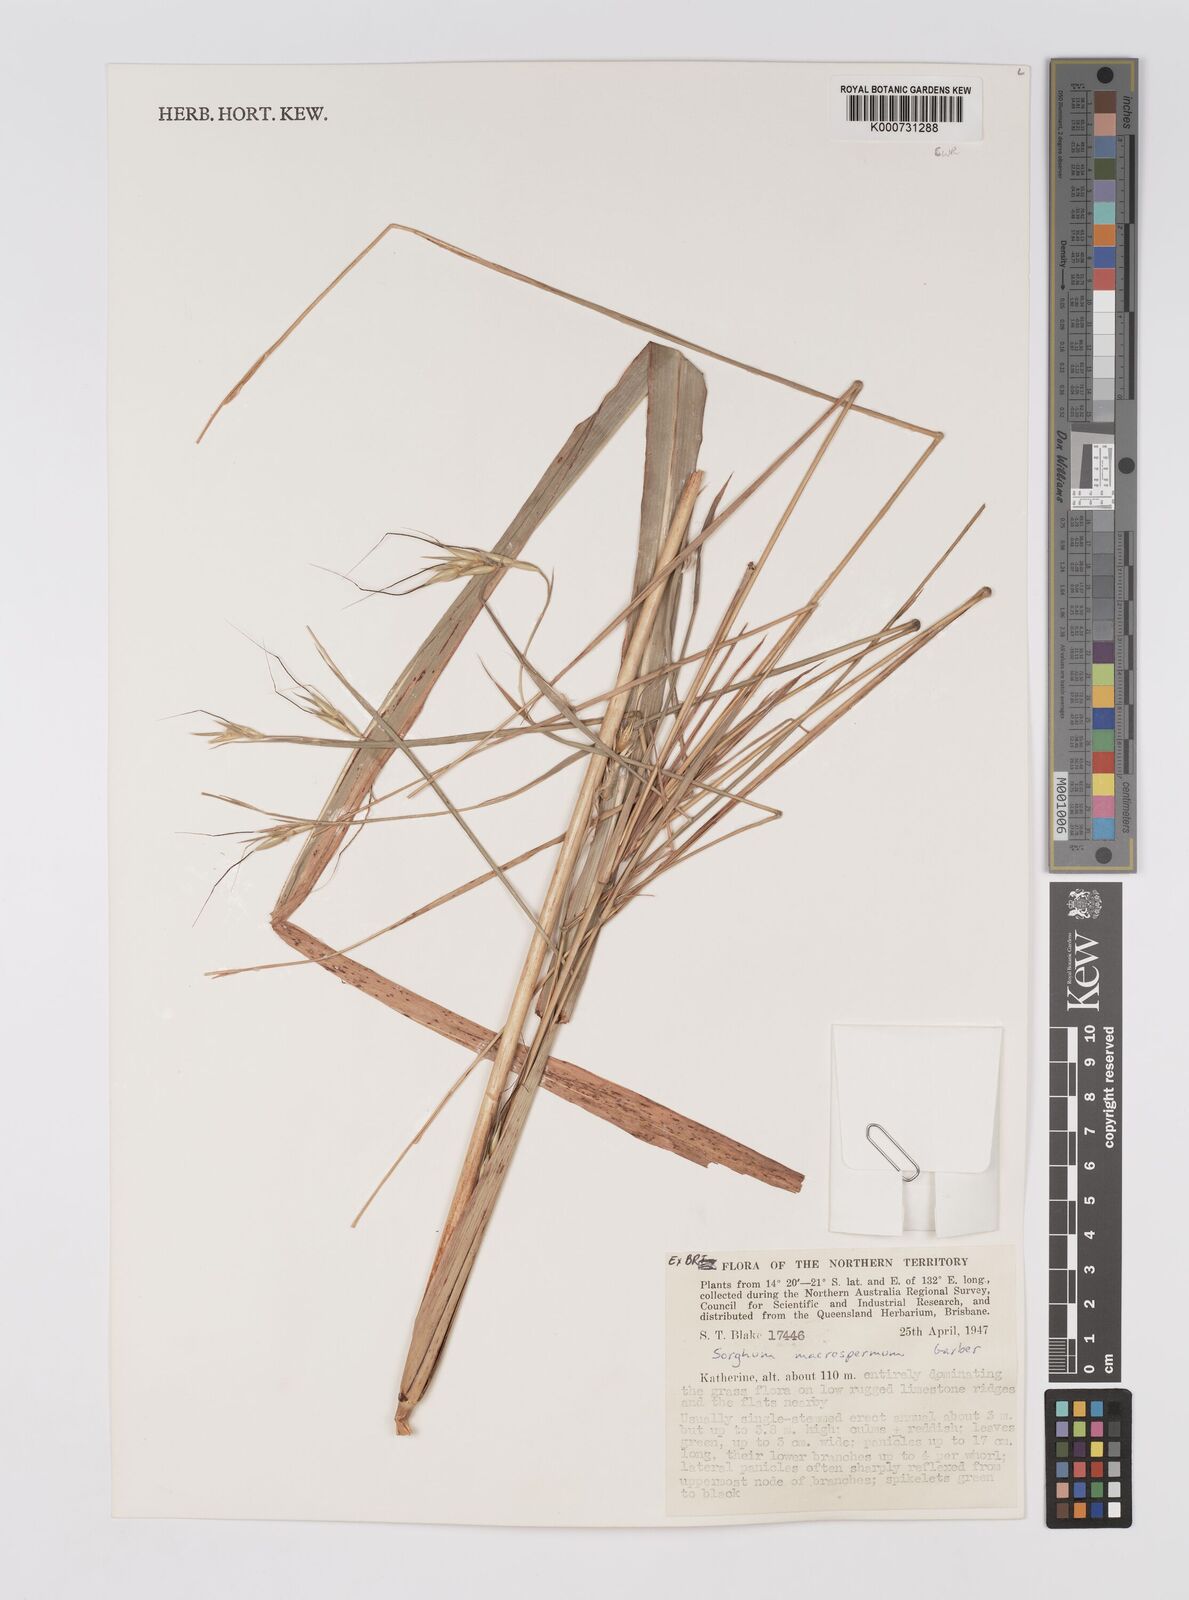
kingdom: Plantae
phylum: Tracheophyta
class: Liliopsida
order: Poales
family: Poaceae
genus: Sorghum
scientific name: Sorghum macrospermum
